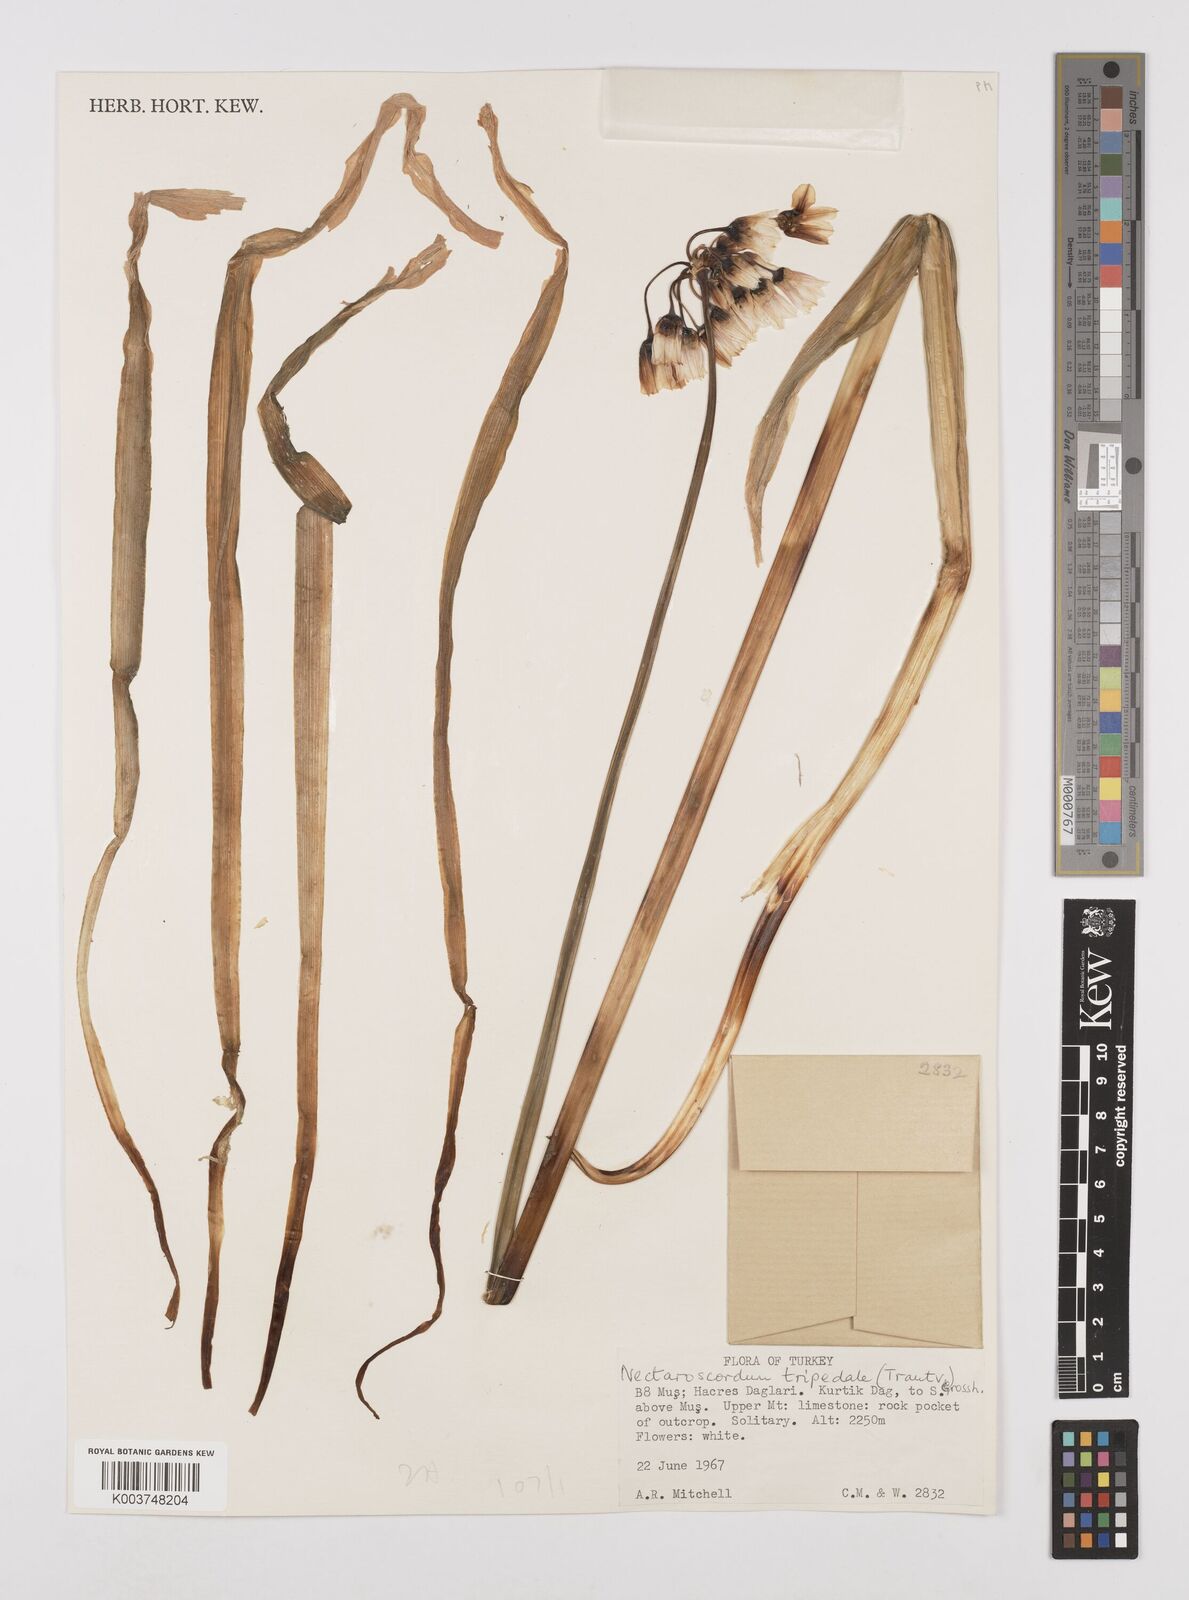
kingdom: Plantae
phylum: Tracheophyta
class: Liliopsida
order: Asparagales
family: Amaryllidaceae
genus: Allium
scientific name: Allium tripedale
